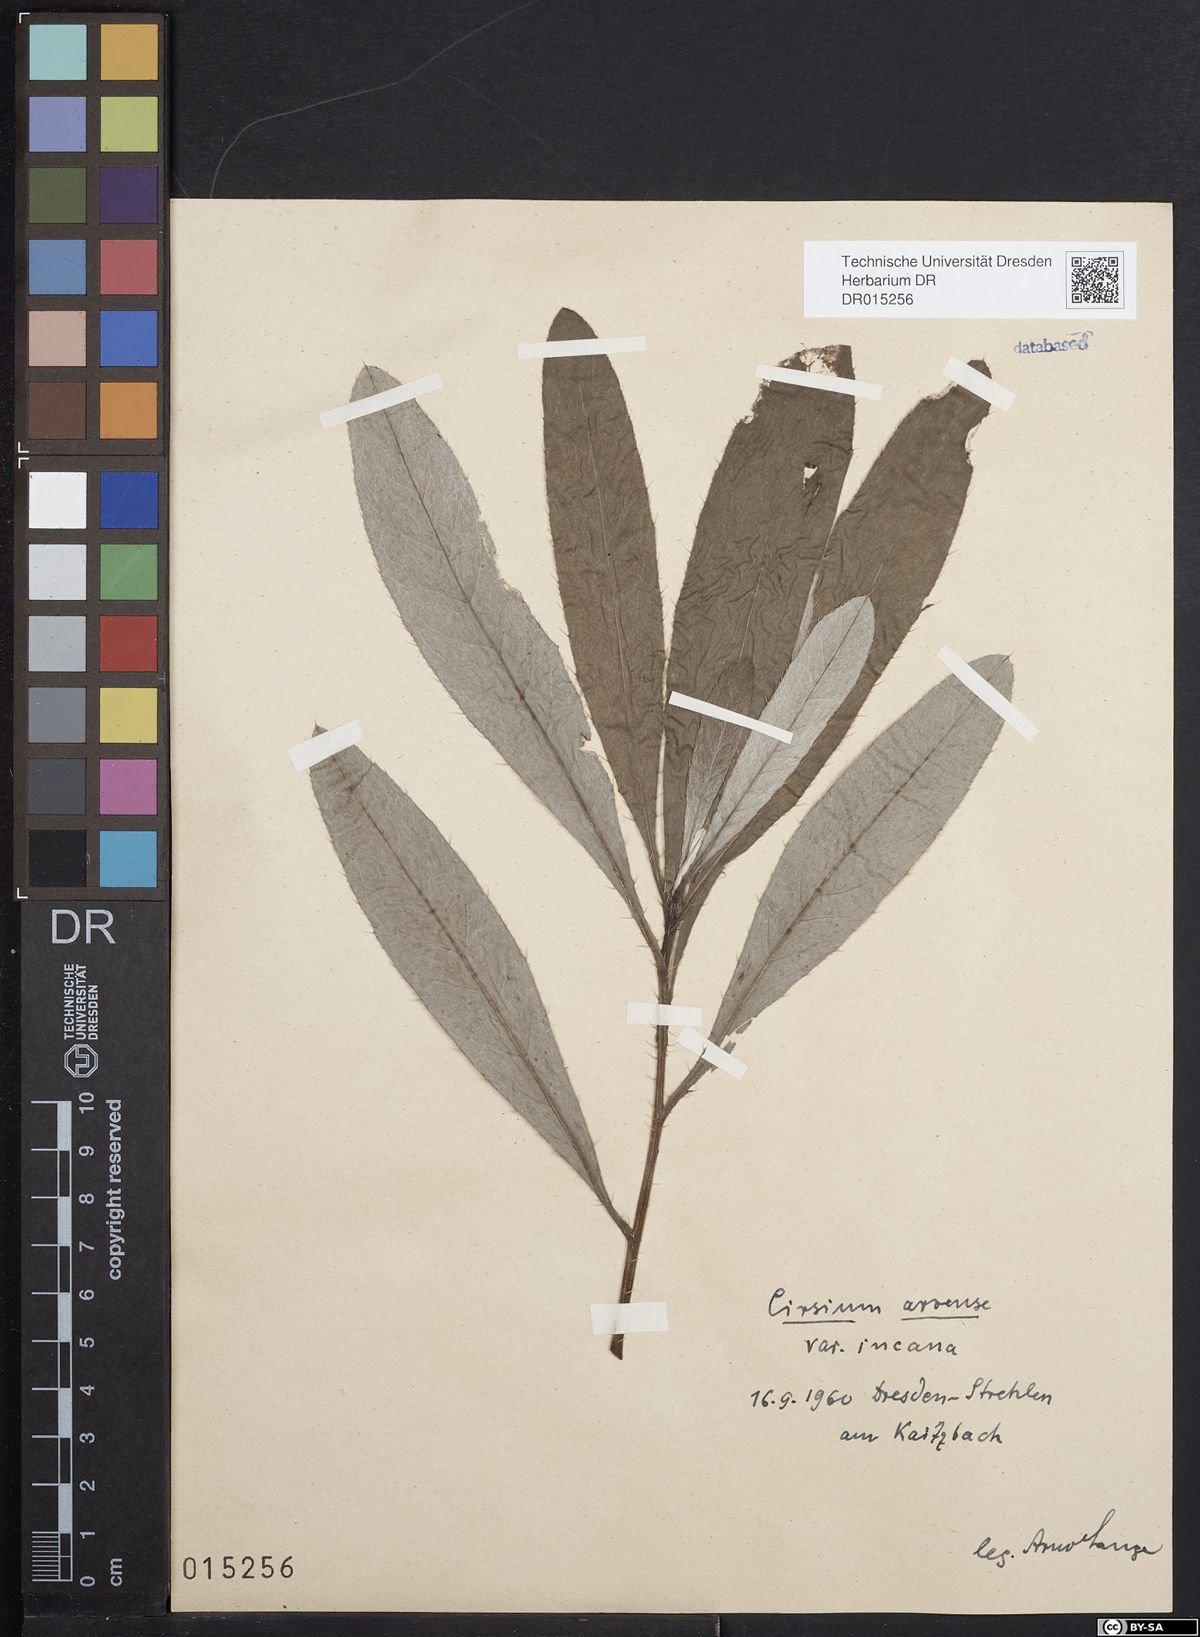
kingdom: Plantae
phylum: Tracheophyta
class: Magnoliopsida
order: Asterales
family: Asteraceae
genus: Cirsium
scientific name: Cirsium arvense
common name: Creeping thistle
